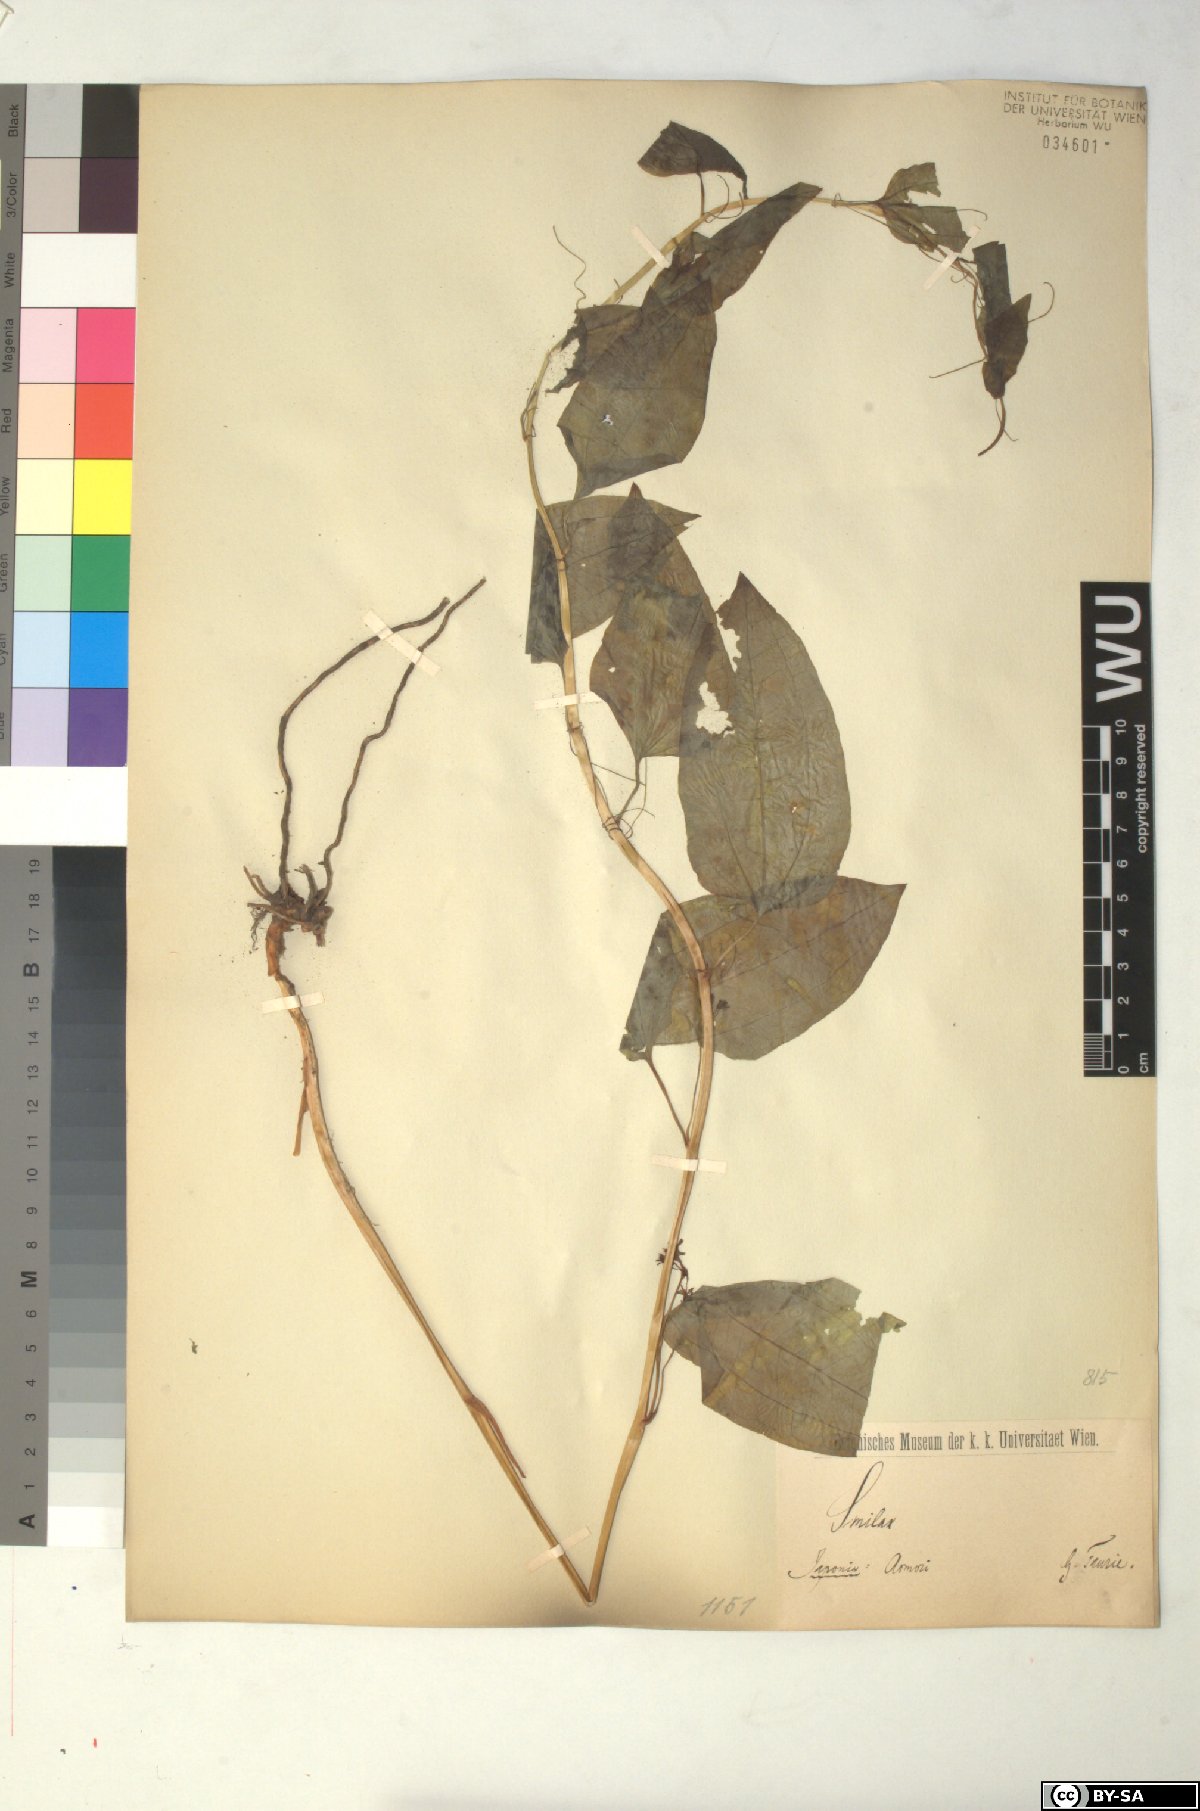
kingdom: Plantae
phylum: Tracheophyta
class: Liliopsida
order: Liliales
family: Smilacaceae
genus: Smilax
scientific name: Smilax
